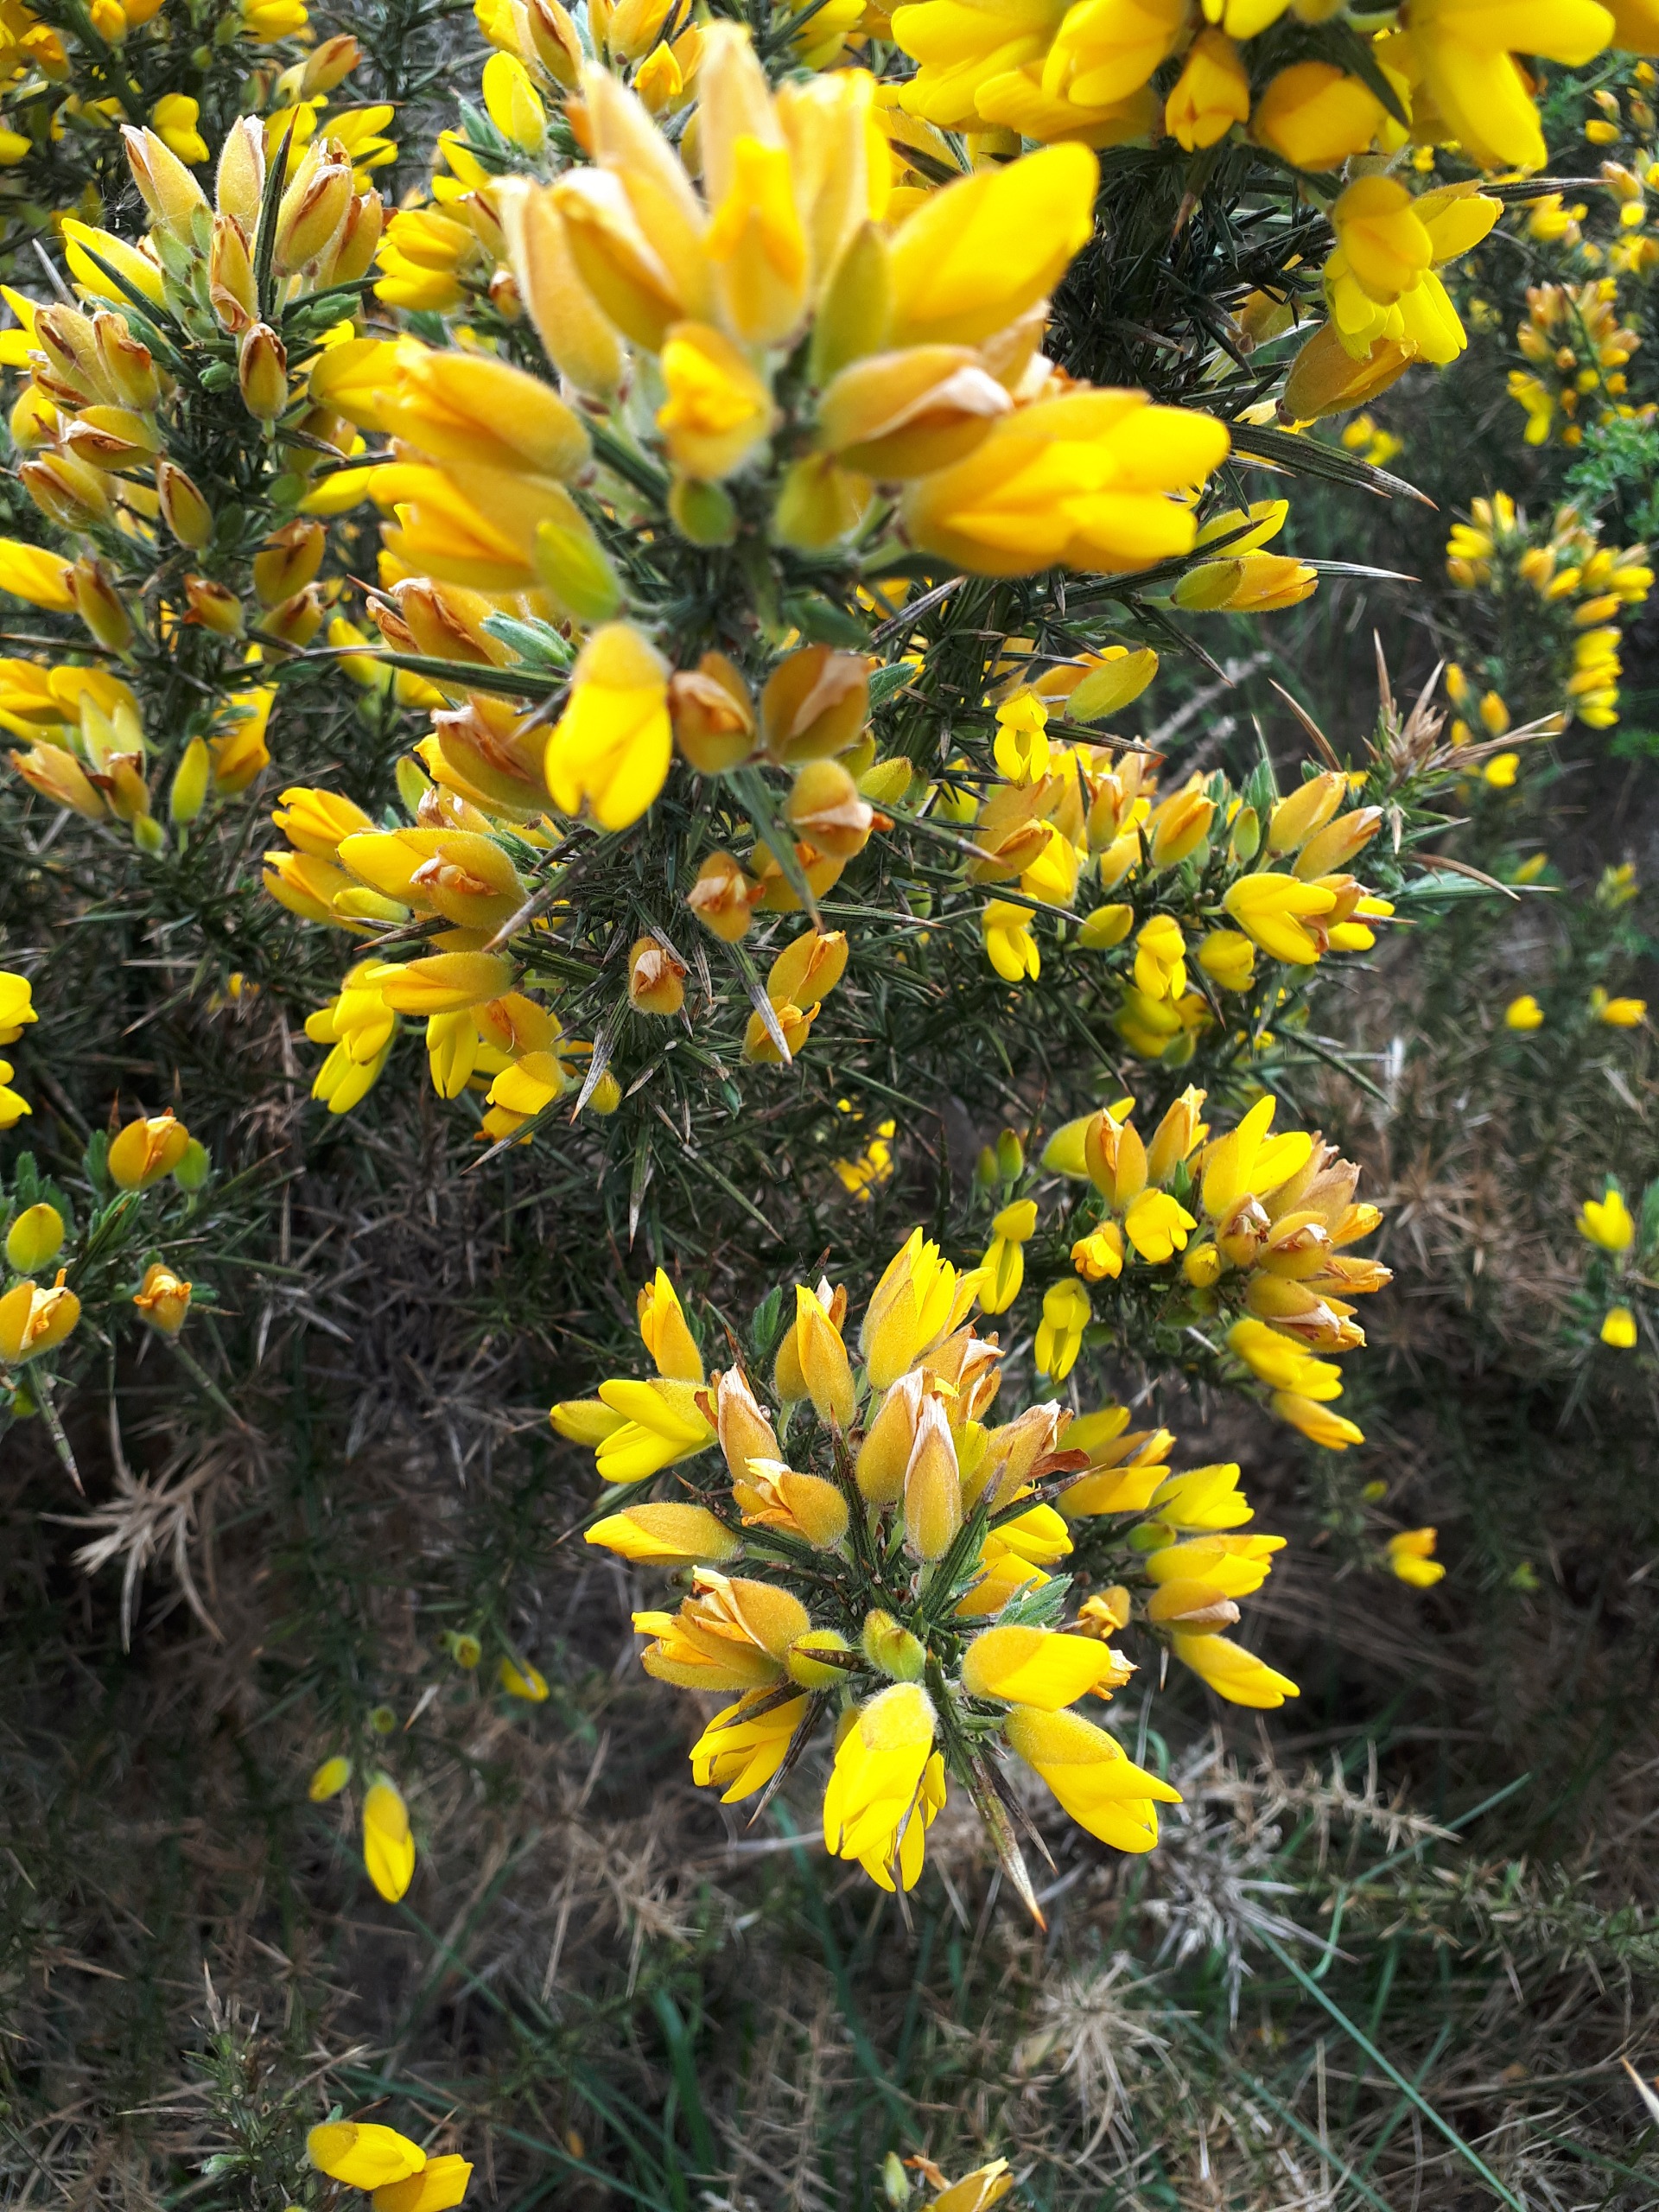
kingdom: Plantae
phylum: Tracheophyta
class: Magnoliopsida
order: Fabales
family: Fabaceae
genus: Ulex
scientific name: Ulex europaeus
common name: Tornblad
